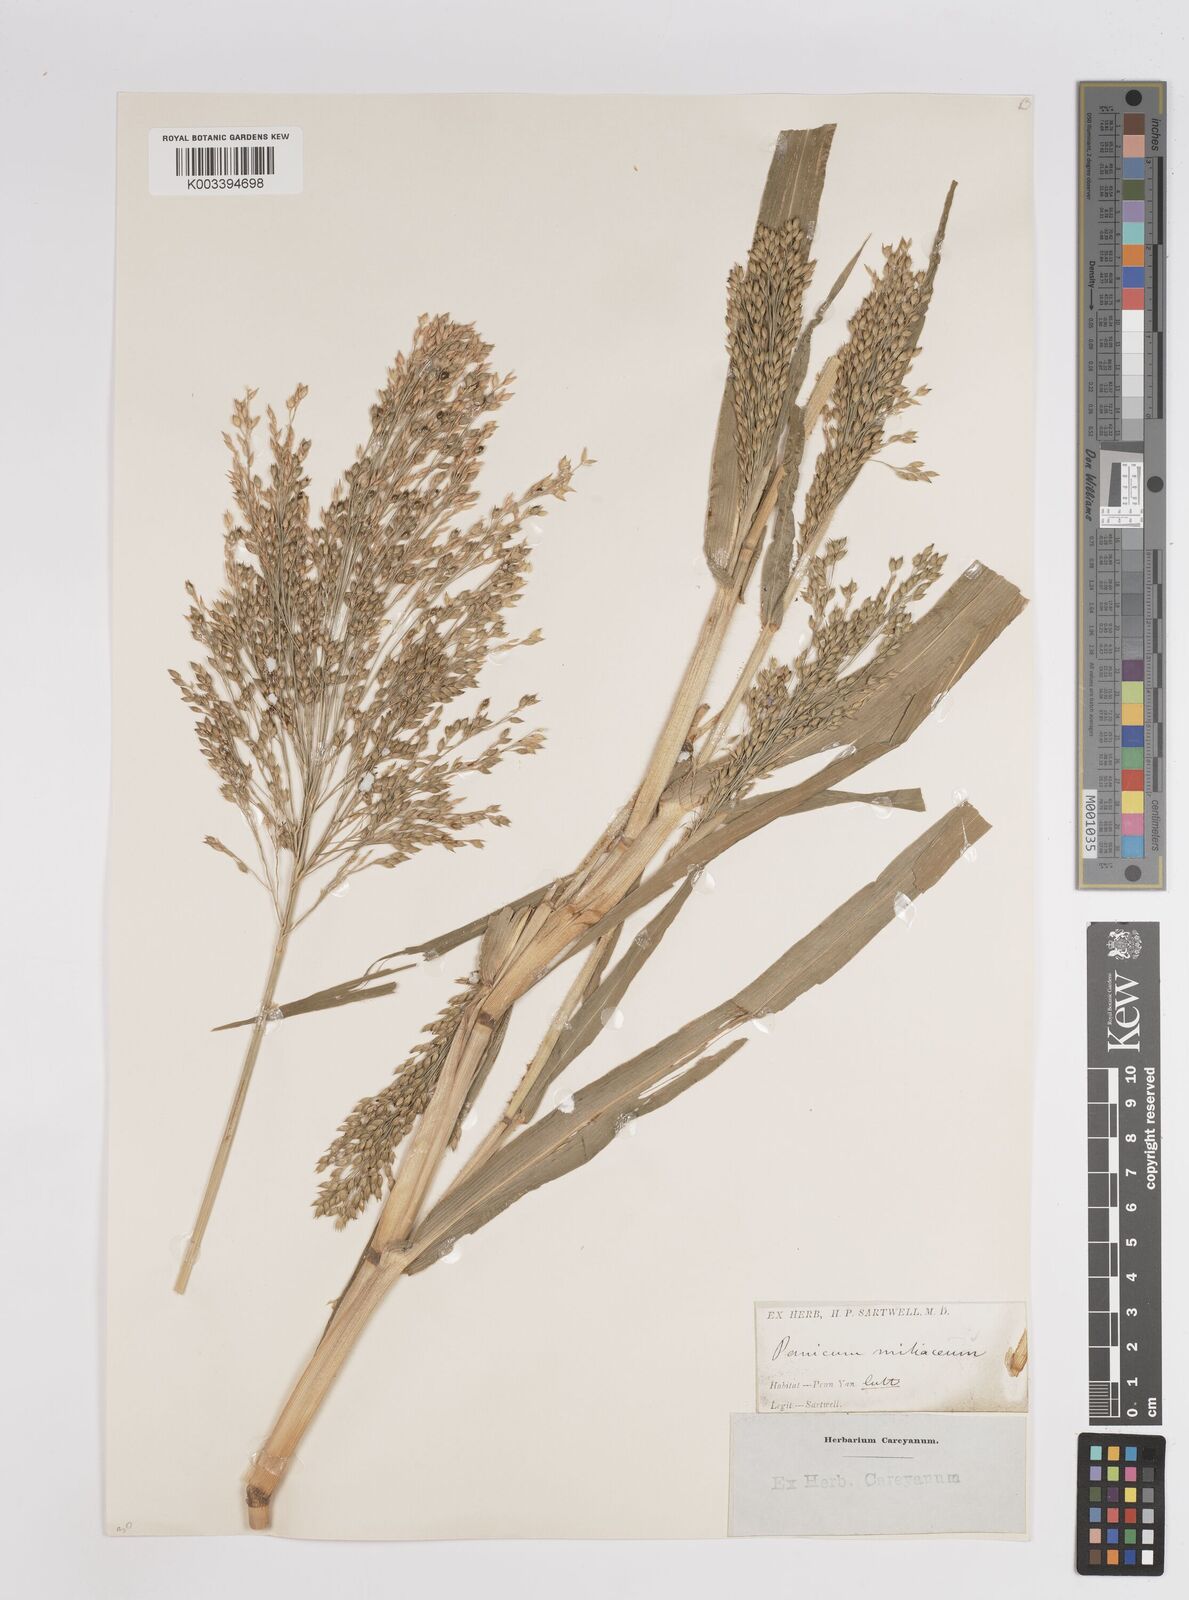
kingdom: Plantae
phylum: Tracheophyta
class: Liliopsida
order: Poales
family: Poaceae
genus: Panicum
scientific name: Panicum miliaceum
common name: Common millet
